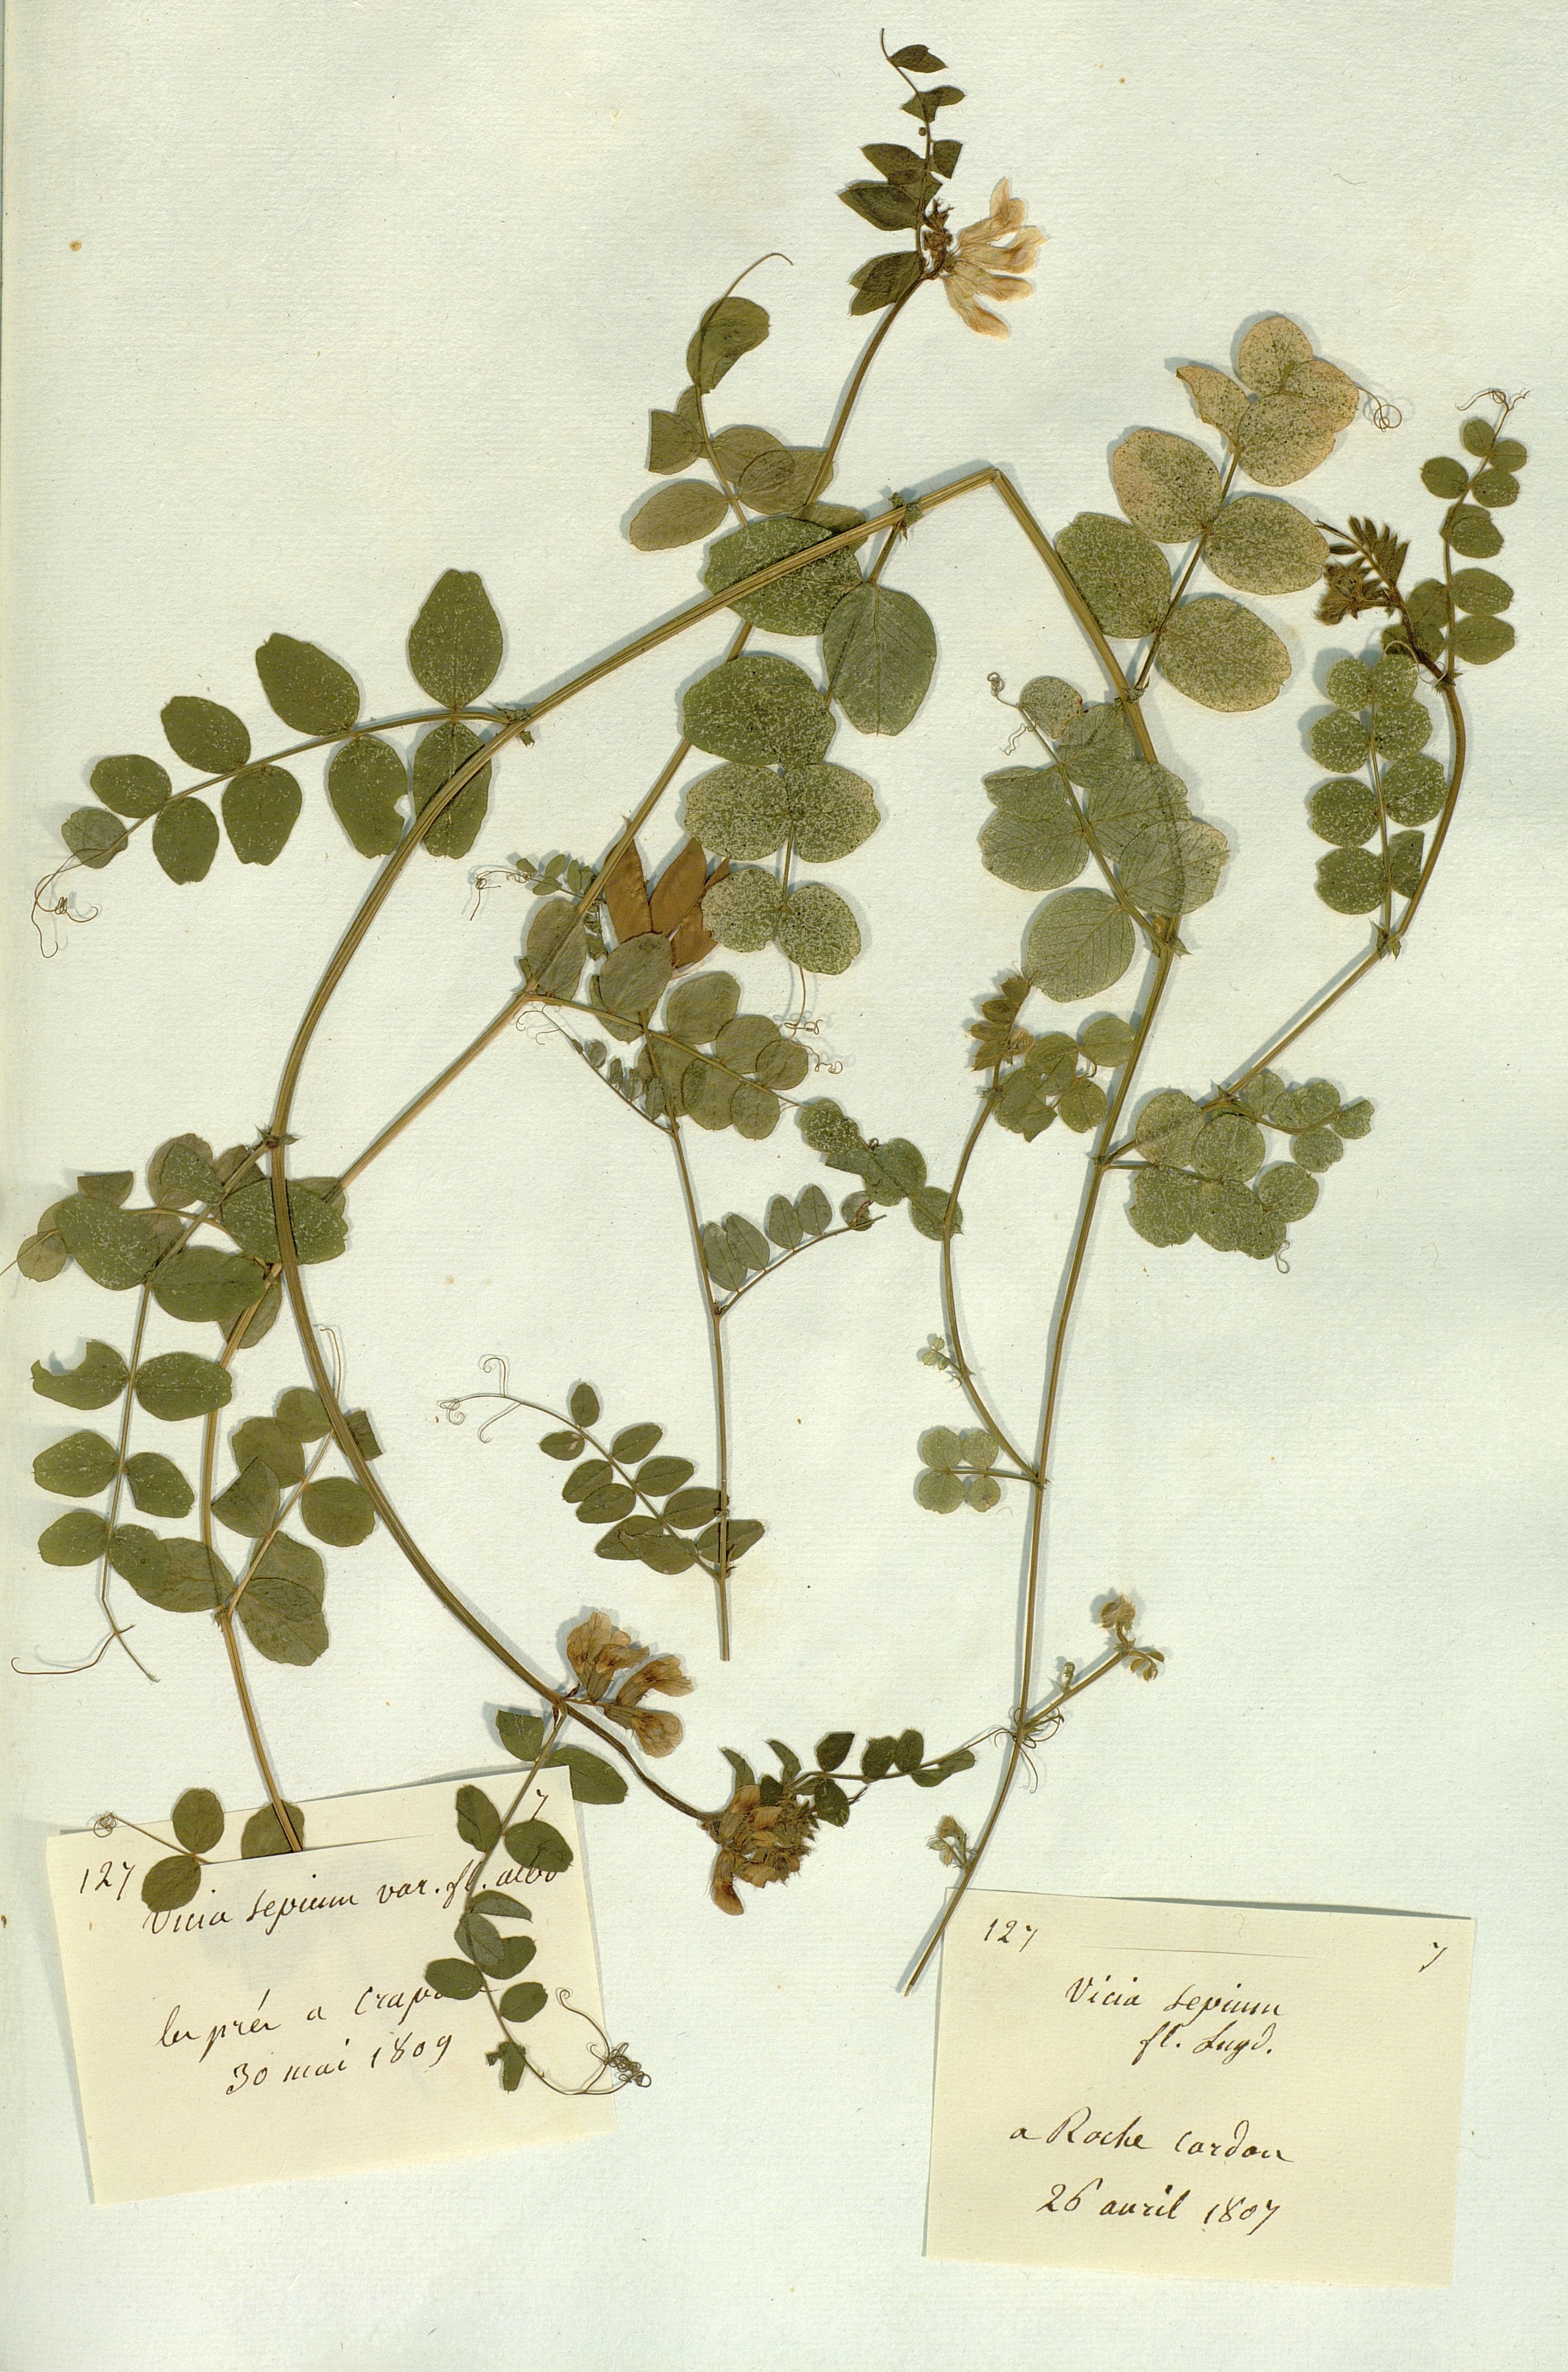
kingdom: Plantae
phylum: Tracheophyta
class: Magnoliopsida
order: Fabales
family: Fabaceae
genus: Vicia
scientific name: Vicia sepium
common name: Bush vetch
